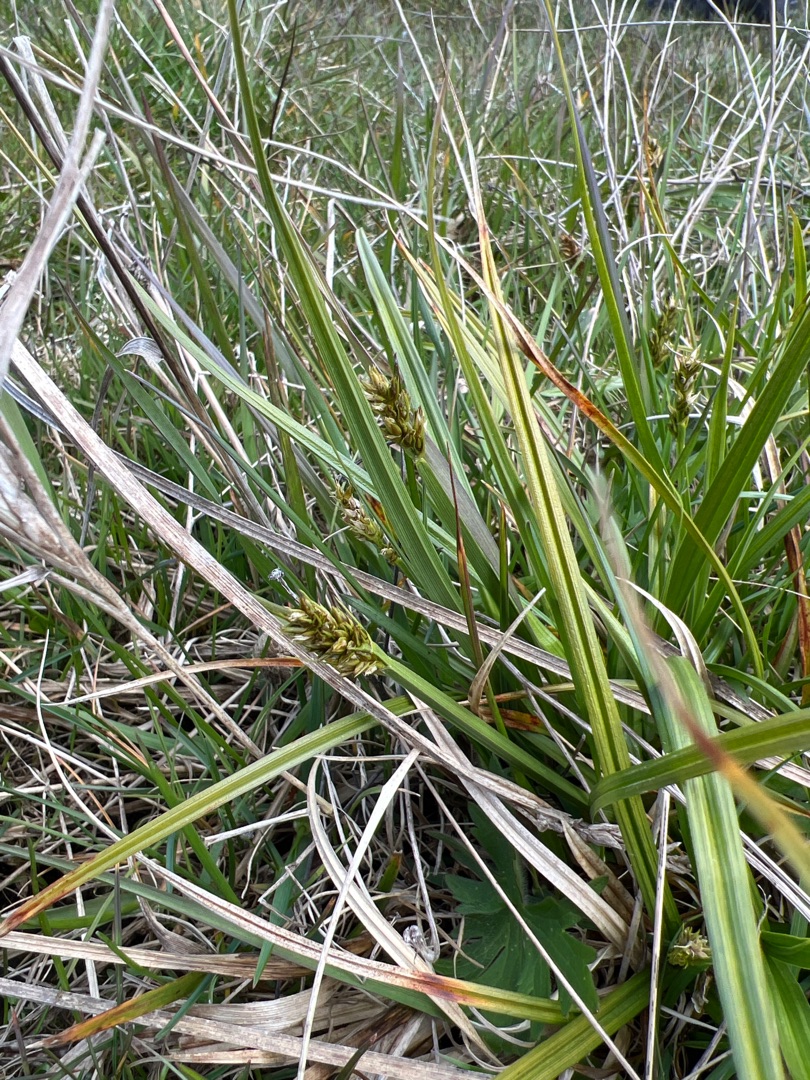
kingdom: Plantae
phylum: Tracheophyta
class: Liliopsida
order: Poales
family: Cyperaceae
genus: Carex
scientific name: Carex otrubae
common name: Sylt-star
